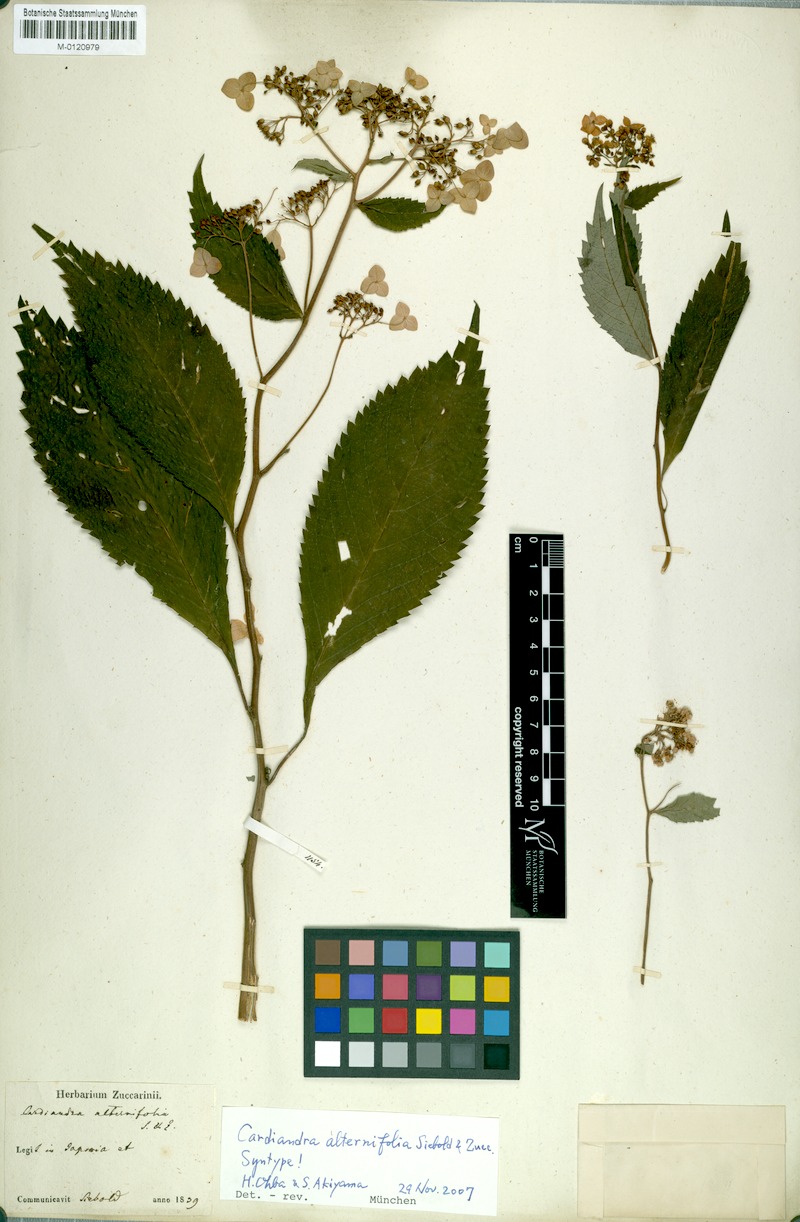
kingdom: Plantae
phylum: Tracheophyta
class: Magnoliopsida
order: Cornales
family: Hydrangeaceae
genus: Hydrangea
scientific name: Hydrangea alternifolia
